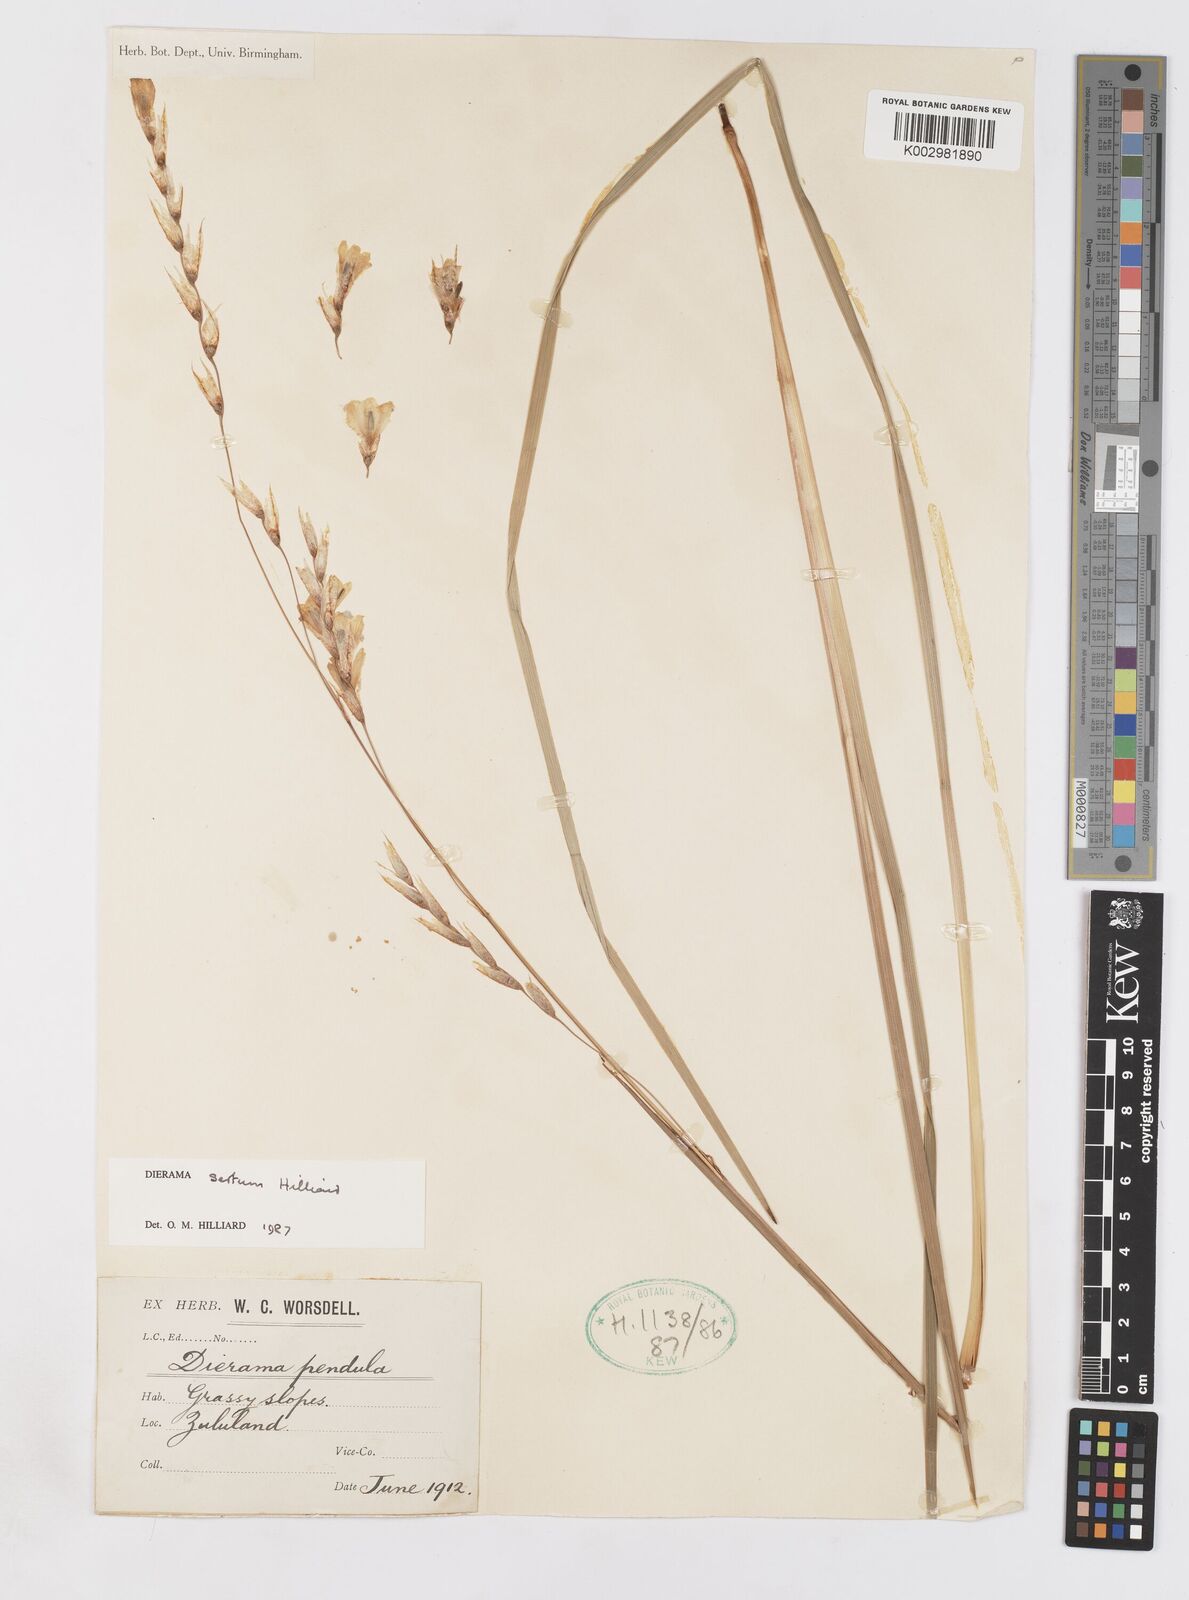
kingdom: Plantae
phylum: Tracheophyta
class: Liliopsida
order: Asparagales
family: Iridaceae
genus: Dierama
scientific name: Dierama sertum
